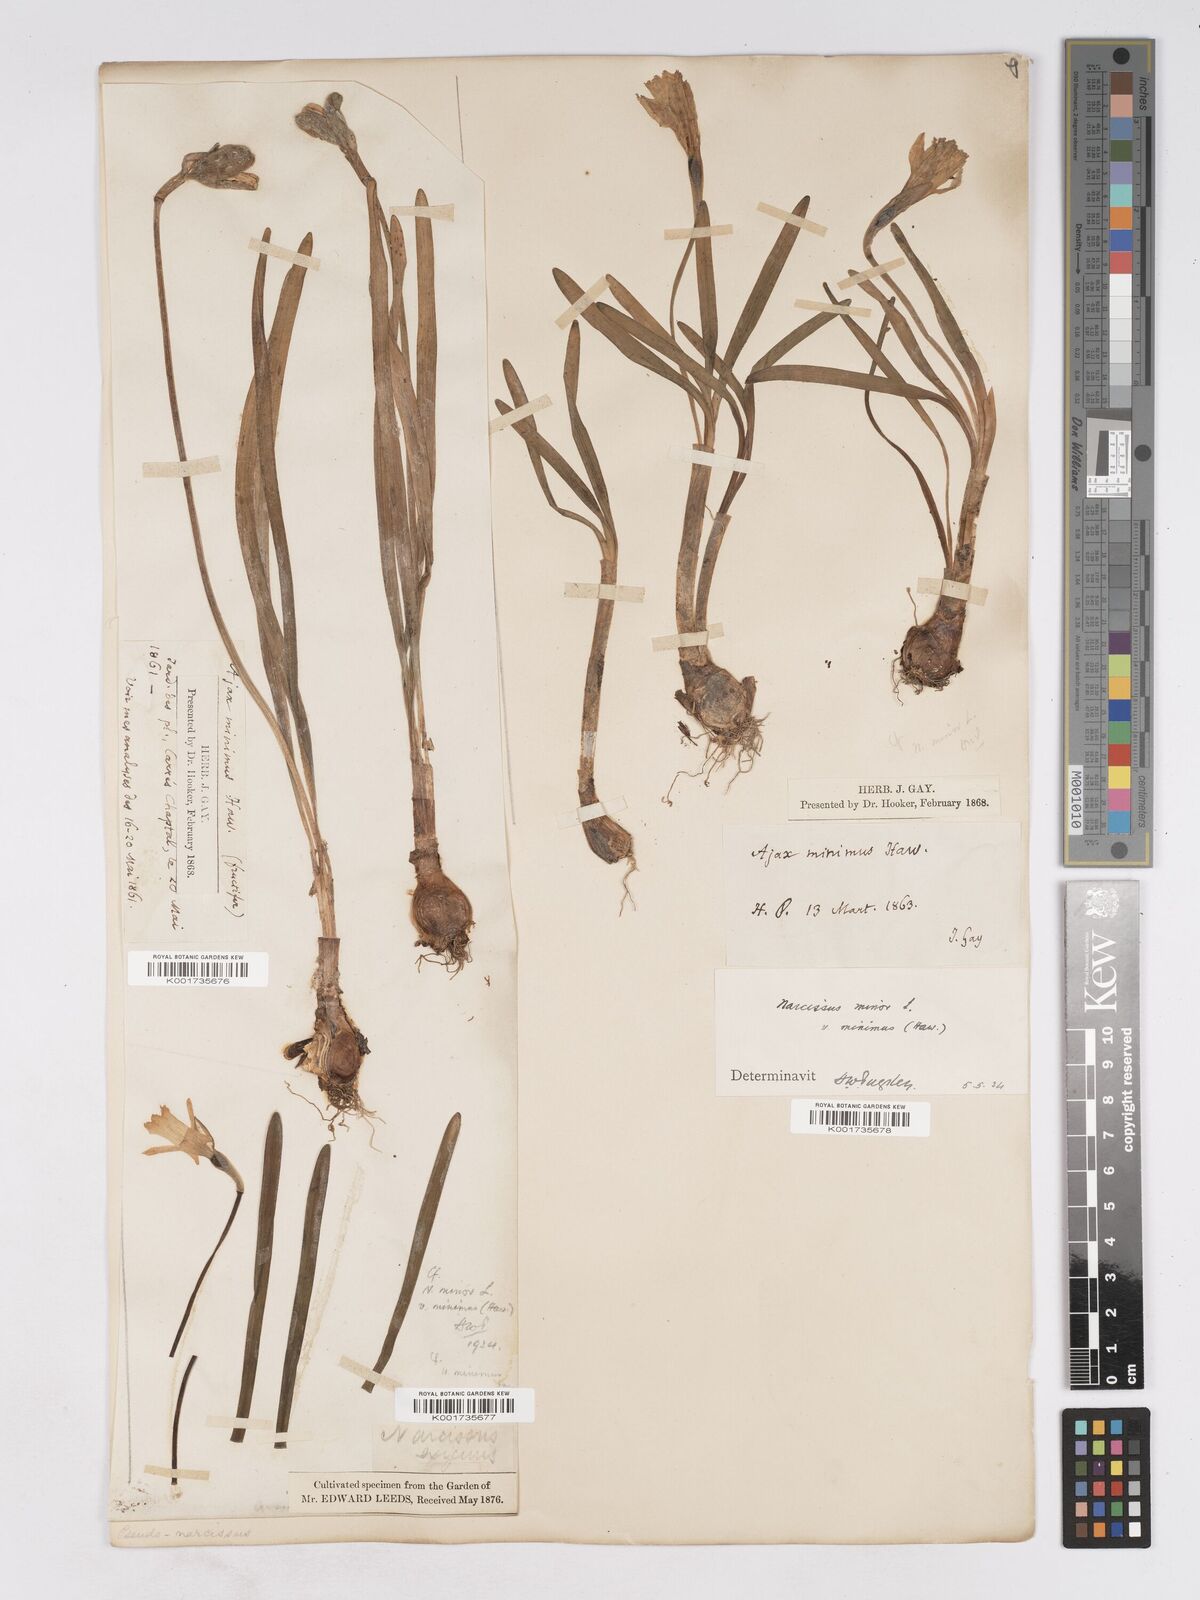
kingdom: Plantae
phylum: Tracheophyta
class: Liliopsida
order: Asparagales
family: Amaryllidaceae
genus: Narcissus
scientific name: Narcissus minor
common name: Lesser daffodil
